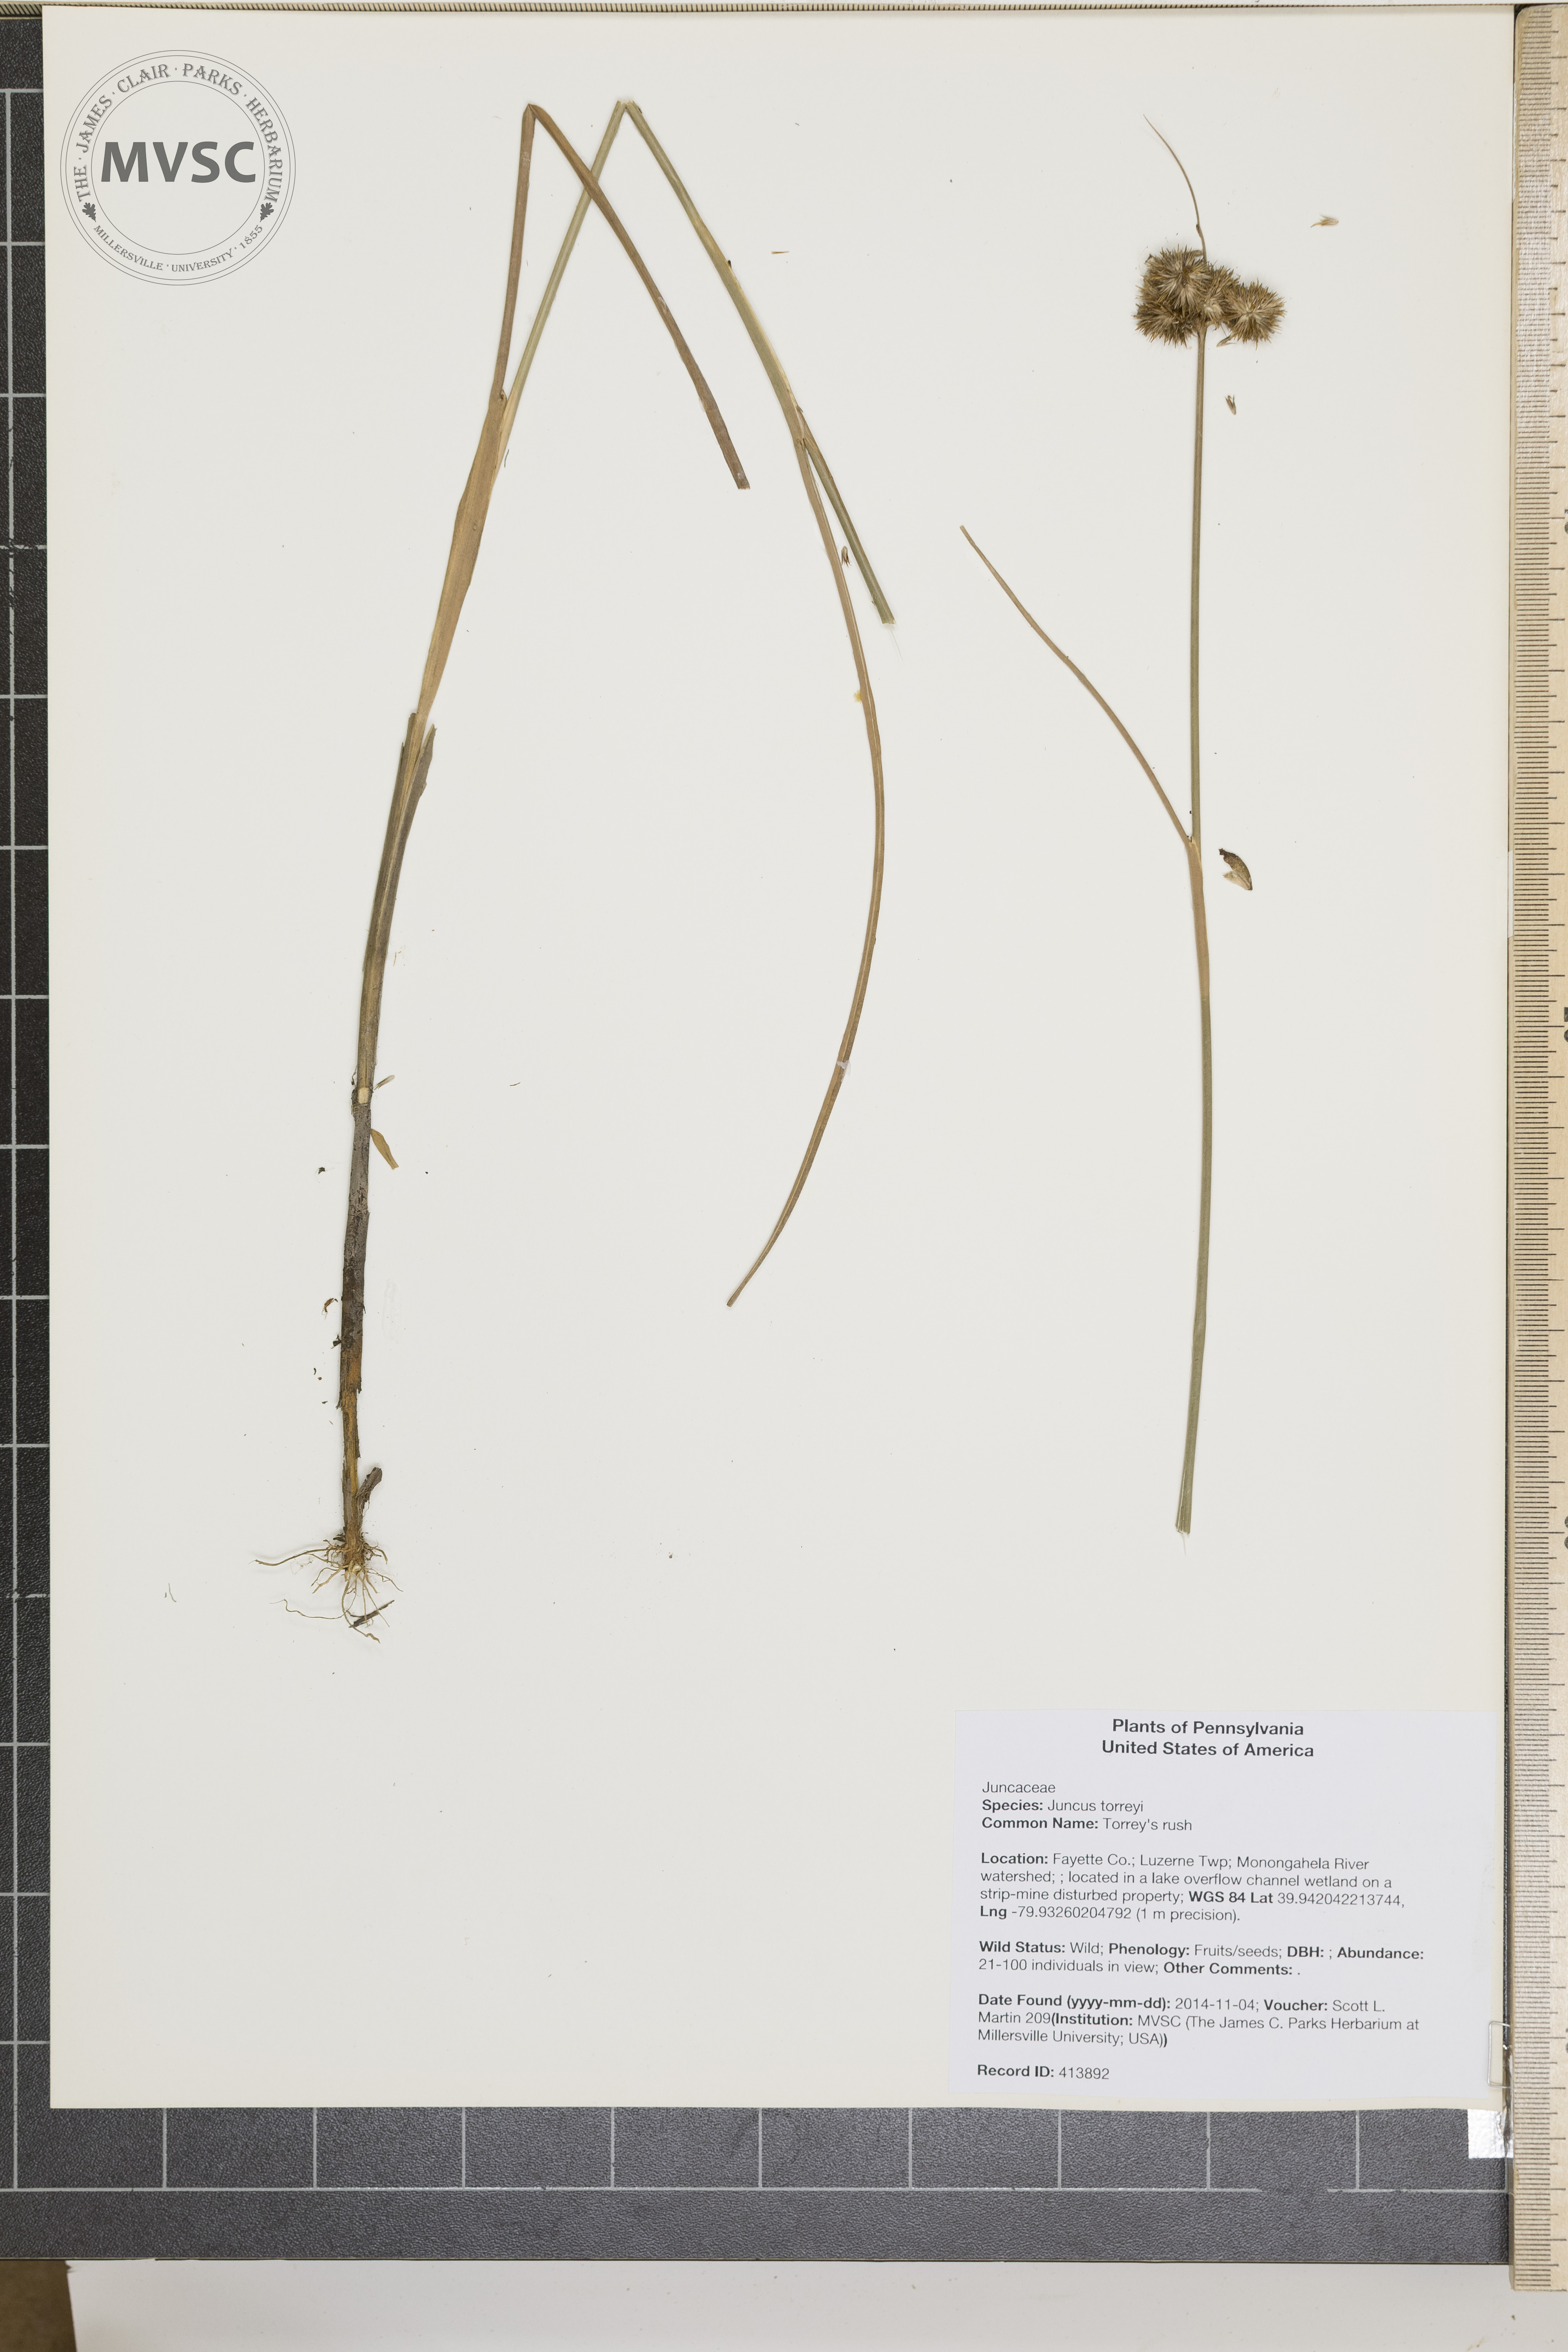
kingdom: Plantae
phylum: Tracheophyta
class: Liliopsida
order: Poales
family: Juncaceae
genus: Juncus
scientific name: Juncus torreyi
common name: Torrey's rush
